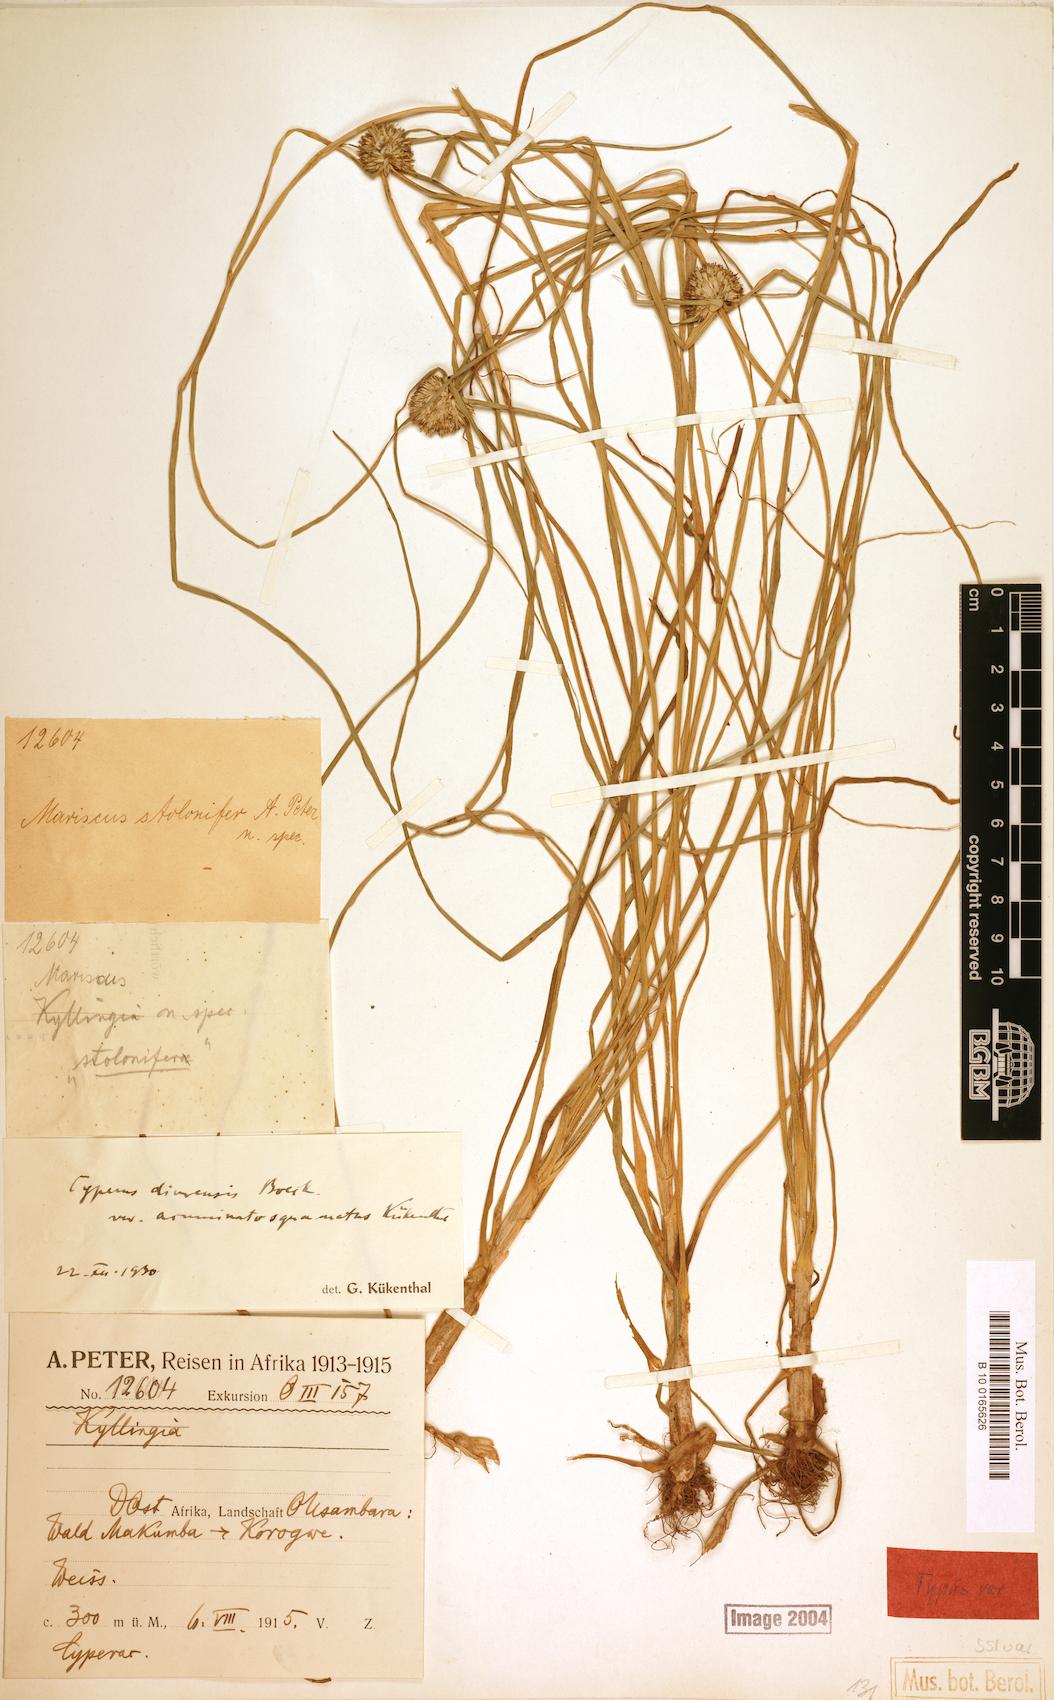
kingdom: Plantae
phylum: Tracheophyta
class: Liliopsida
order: Poales
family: Cyperaceae
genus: Cyperus
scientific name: Cyperus diurensis
